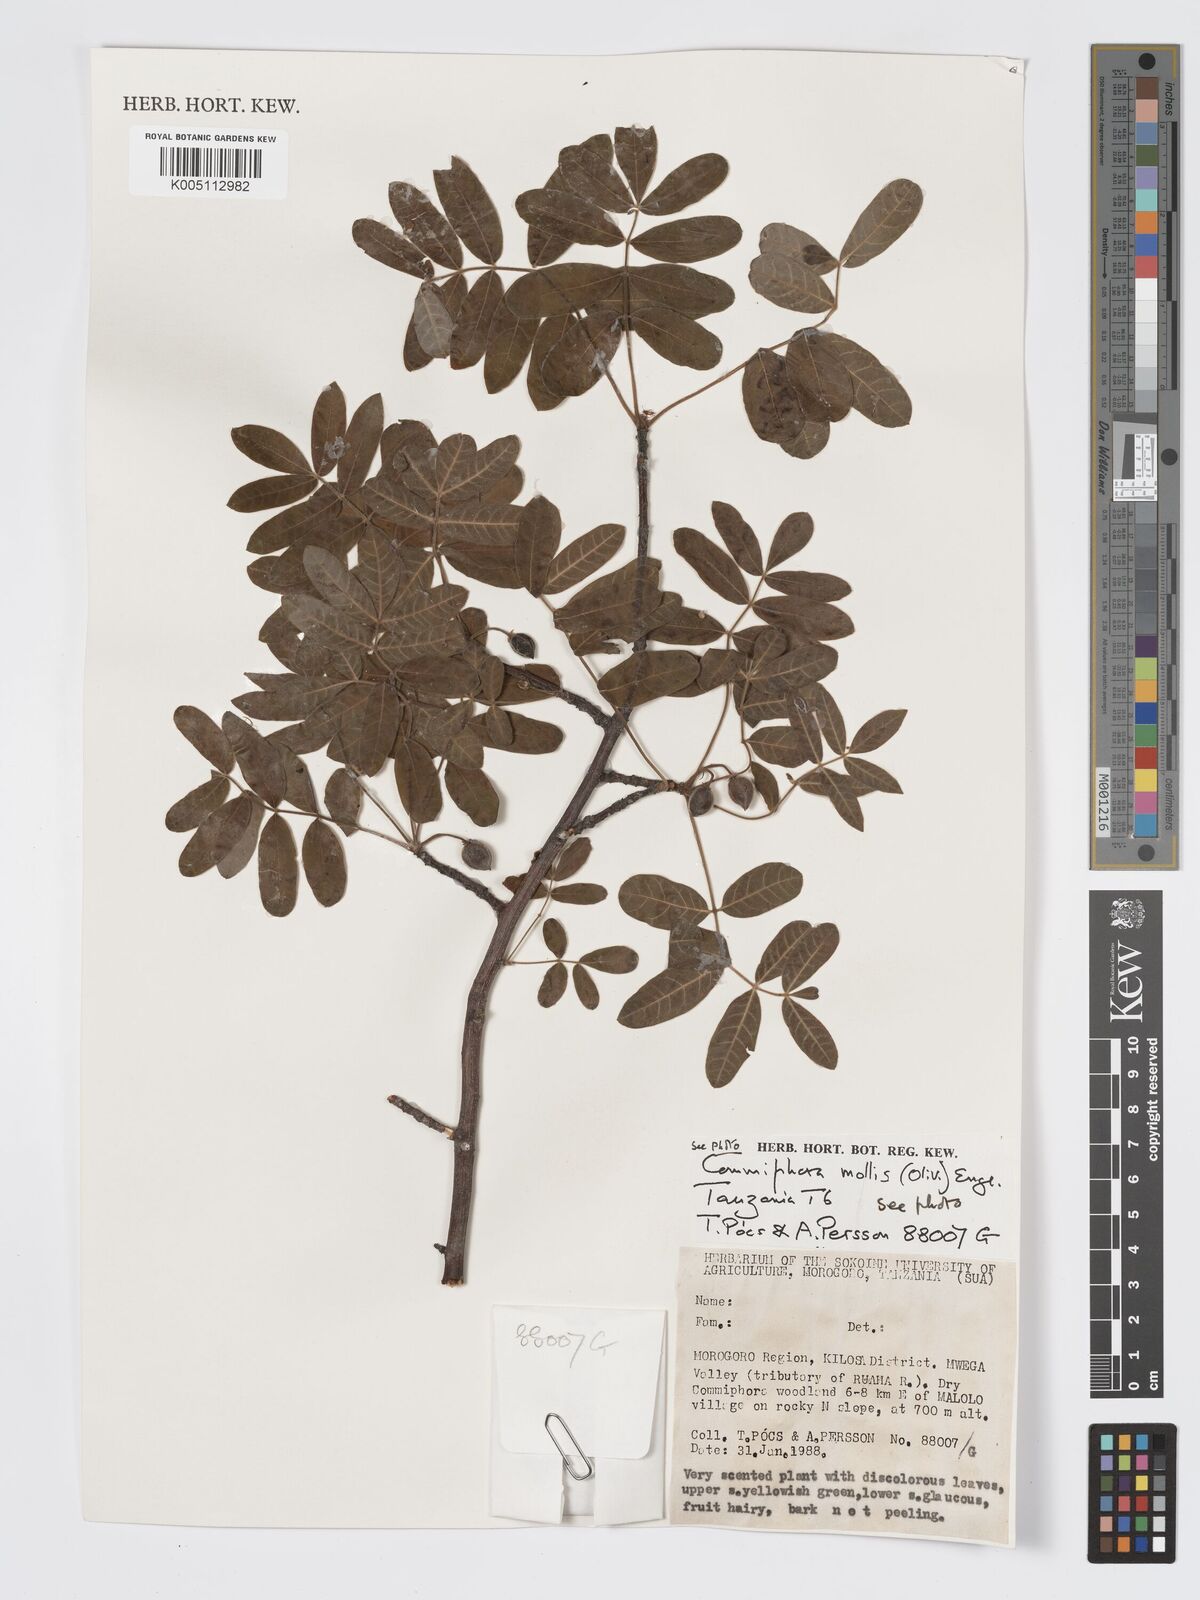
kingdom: Plantae
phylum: Tracheophyta
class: Magnoliopsida
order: Sapindales
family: Burseraceae
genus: Commiphora
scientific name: Commiphora
